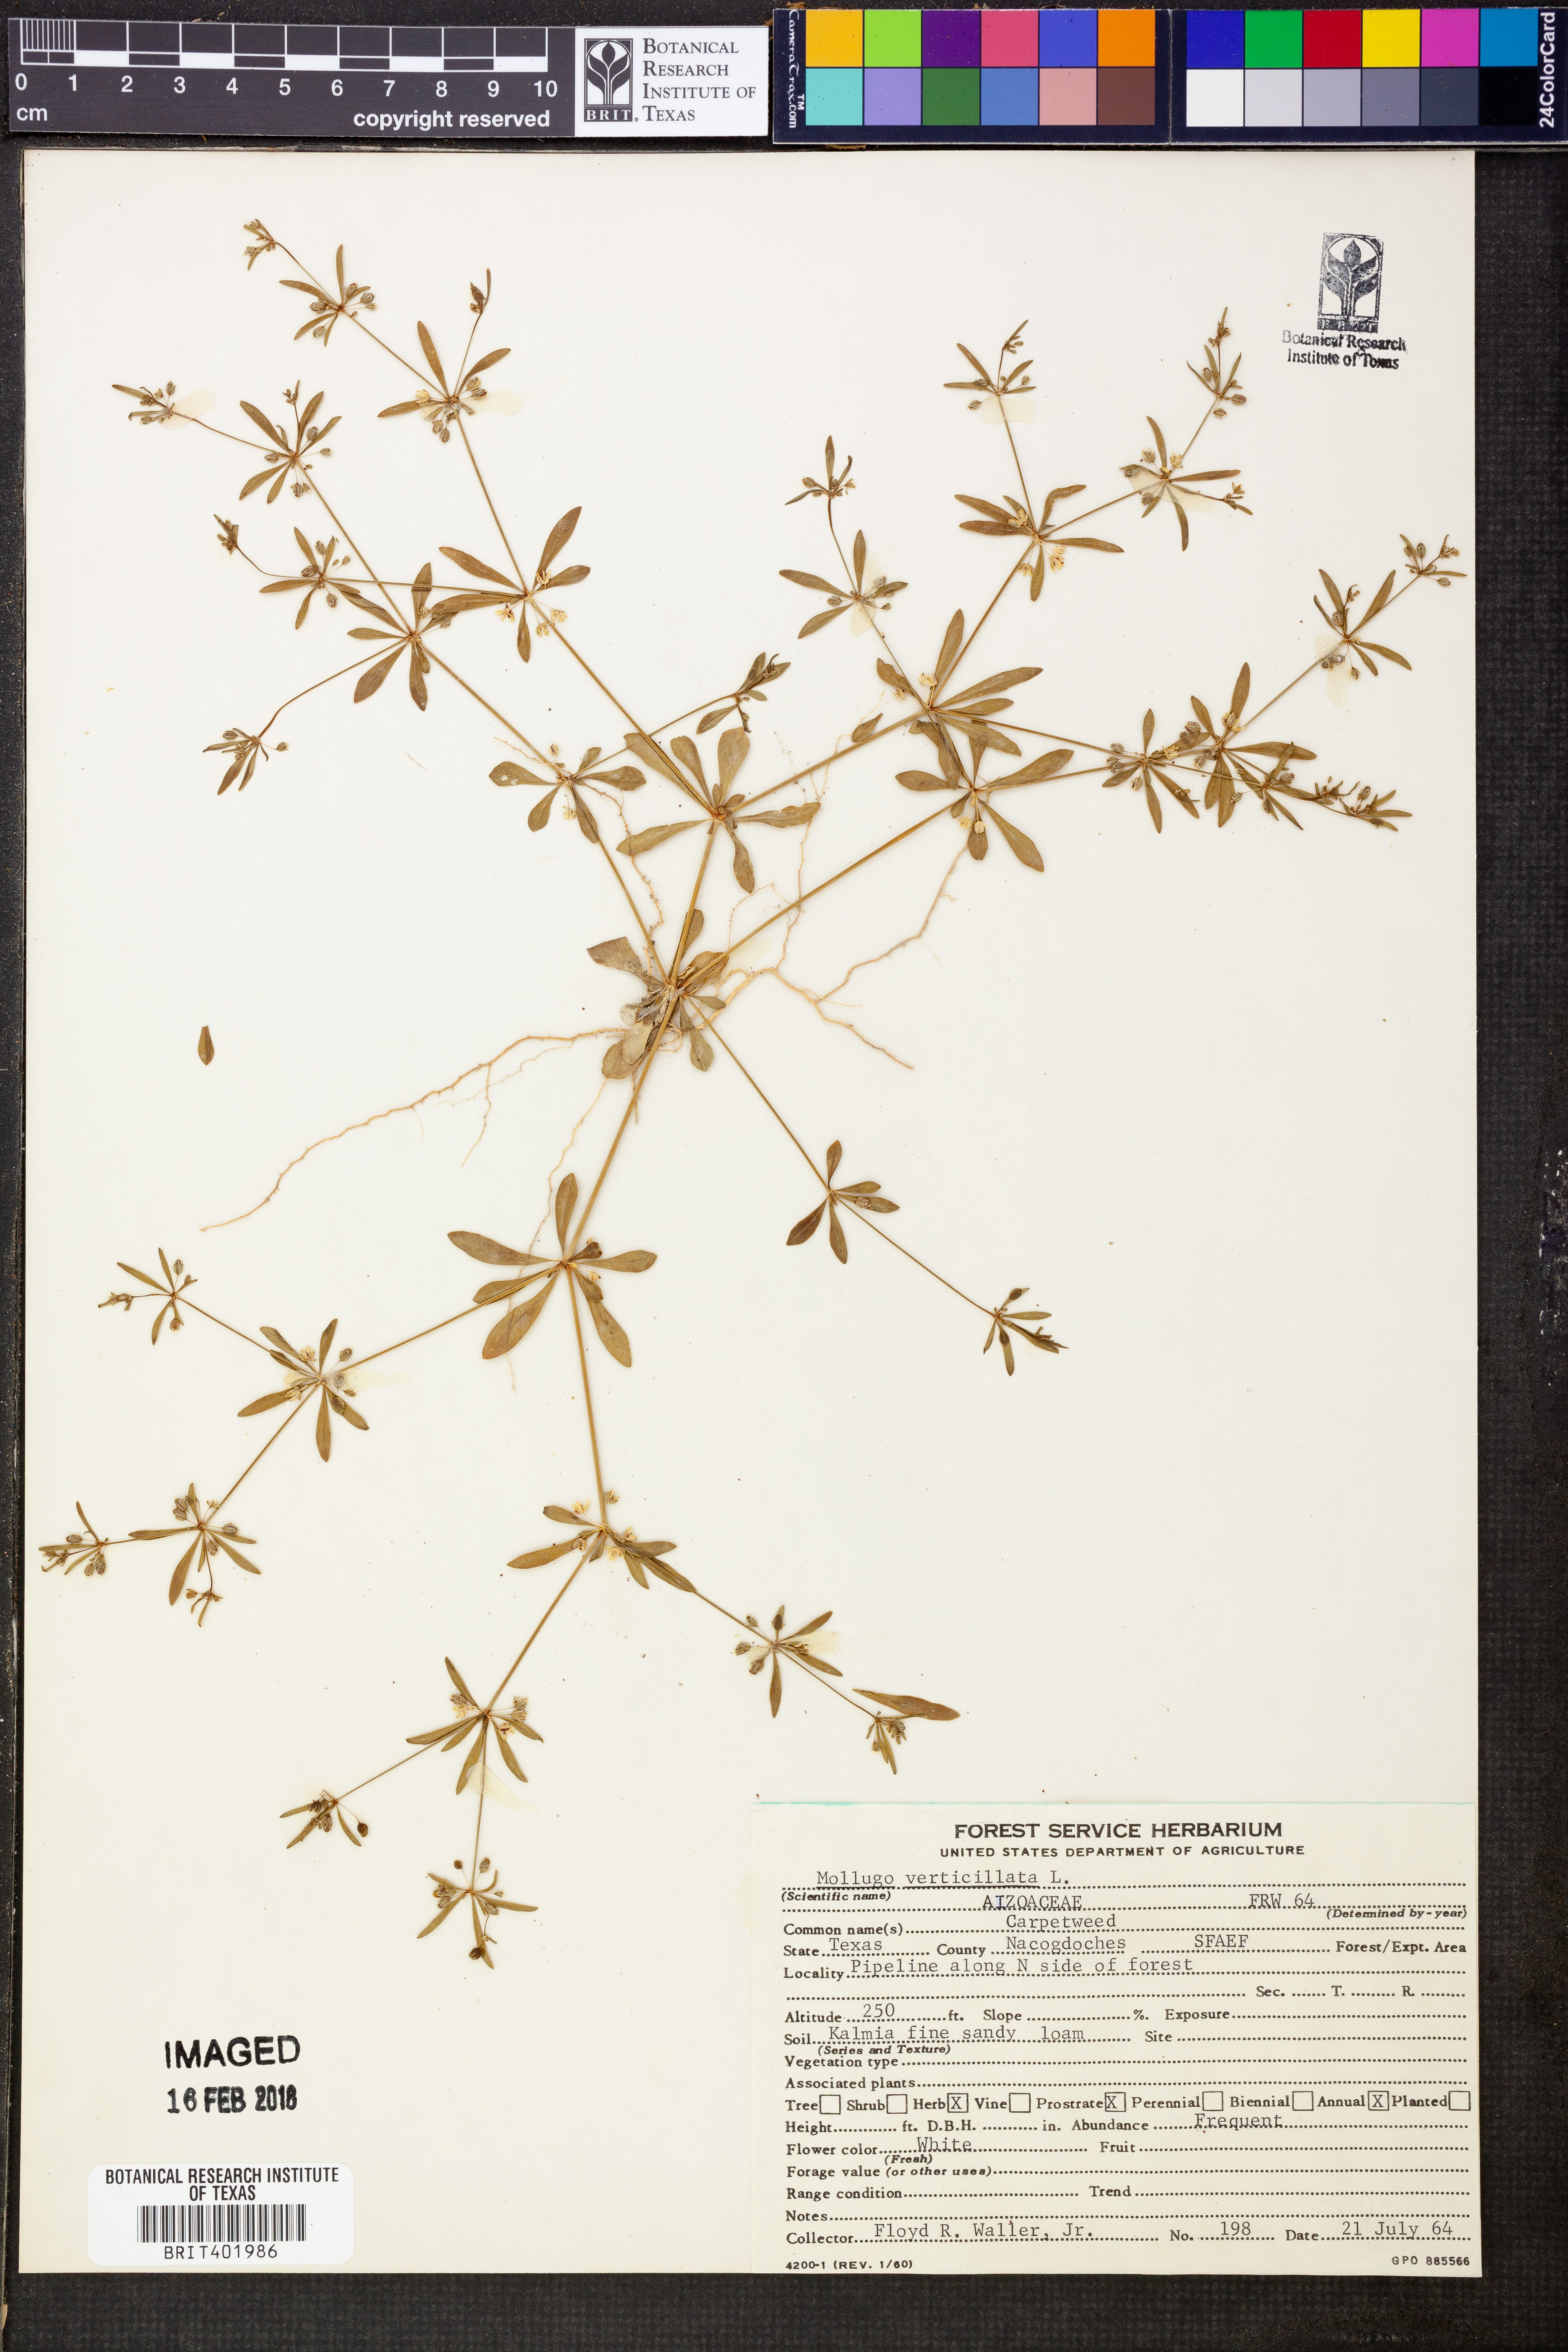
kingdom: Plantae
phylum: Tracheophyta
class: Magnoliopsida
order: Caryophyllales
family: Molluginaceae
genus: Mollugo
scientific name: Mollugo verticillata
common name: Green carpetweed
